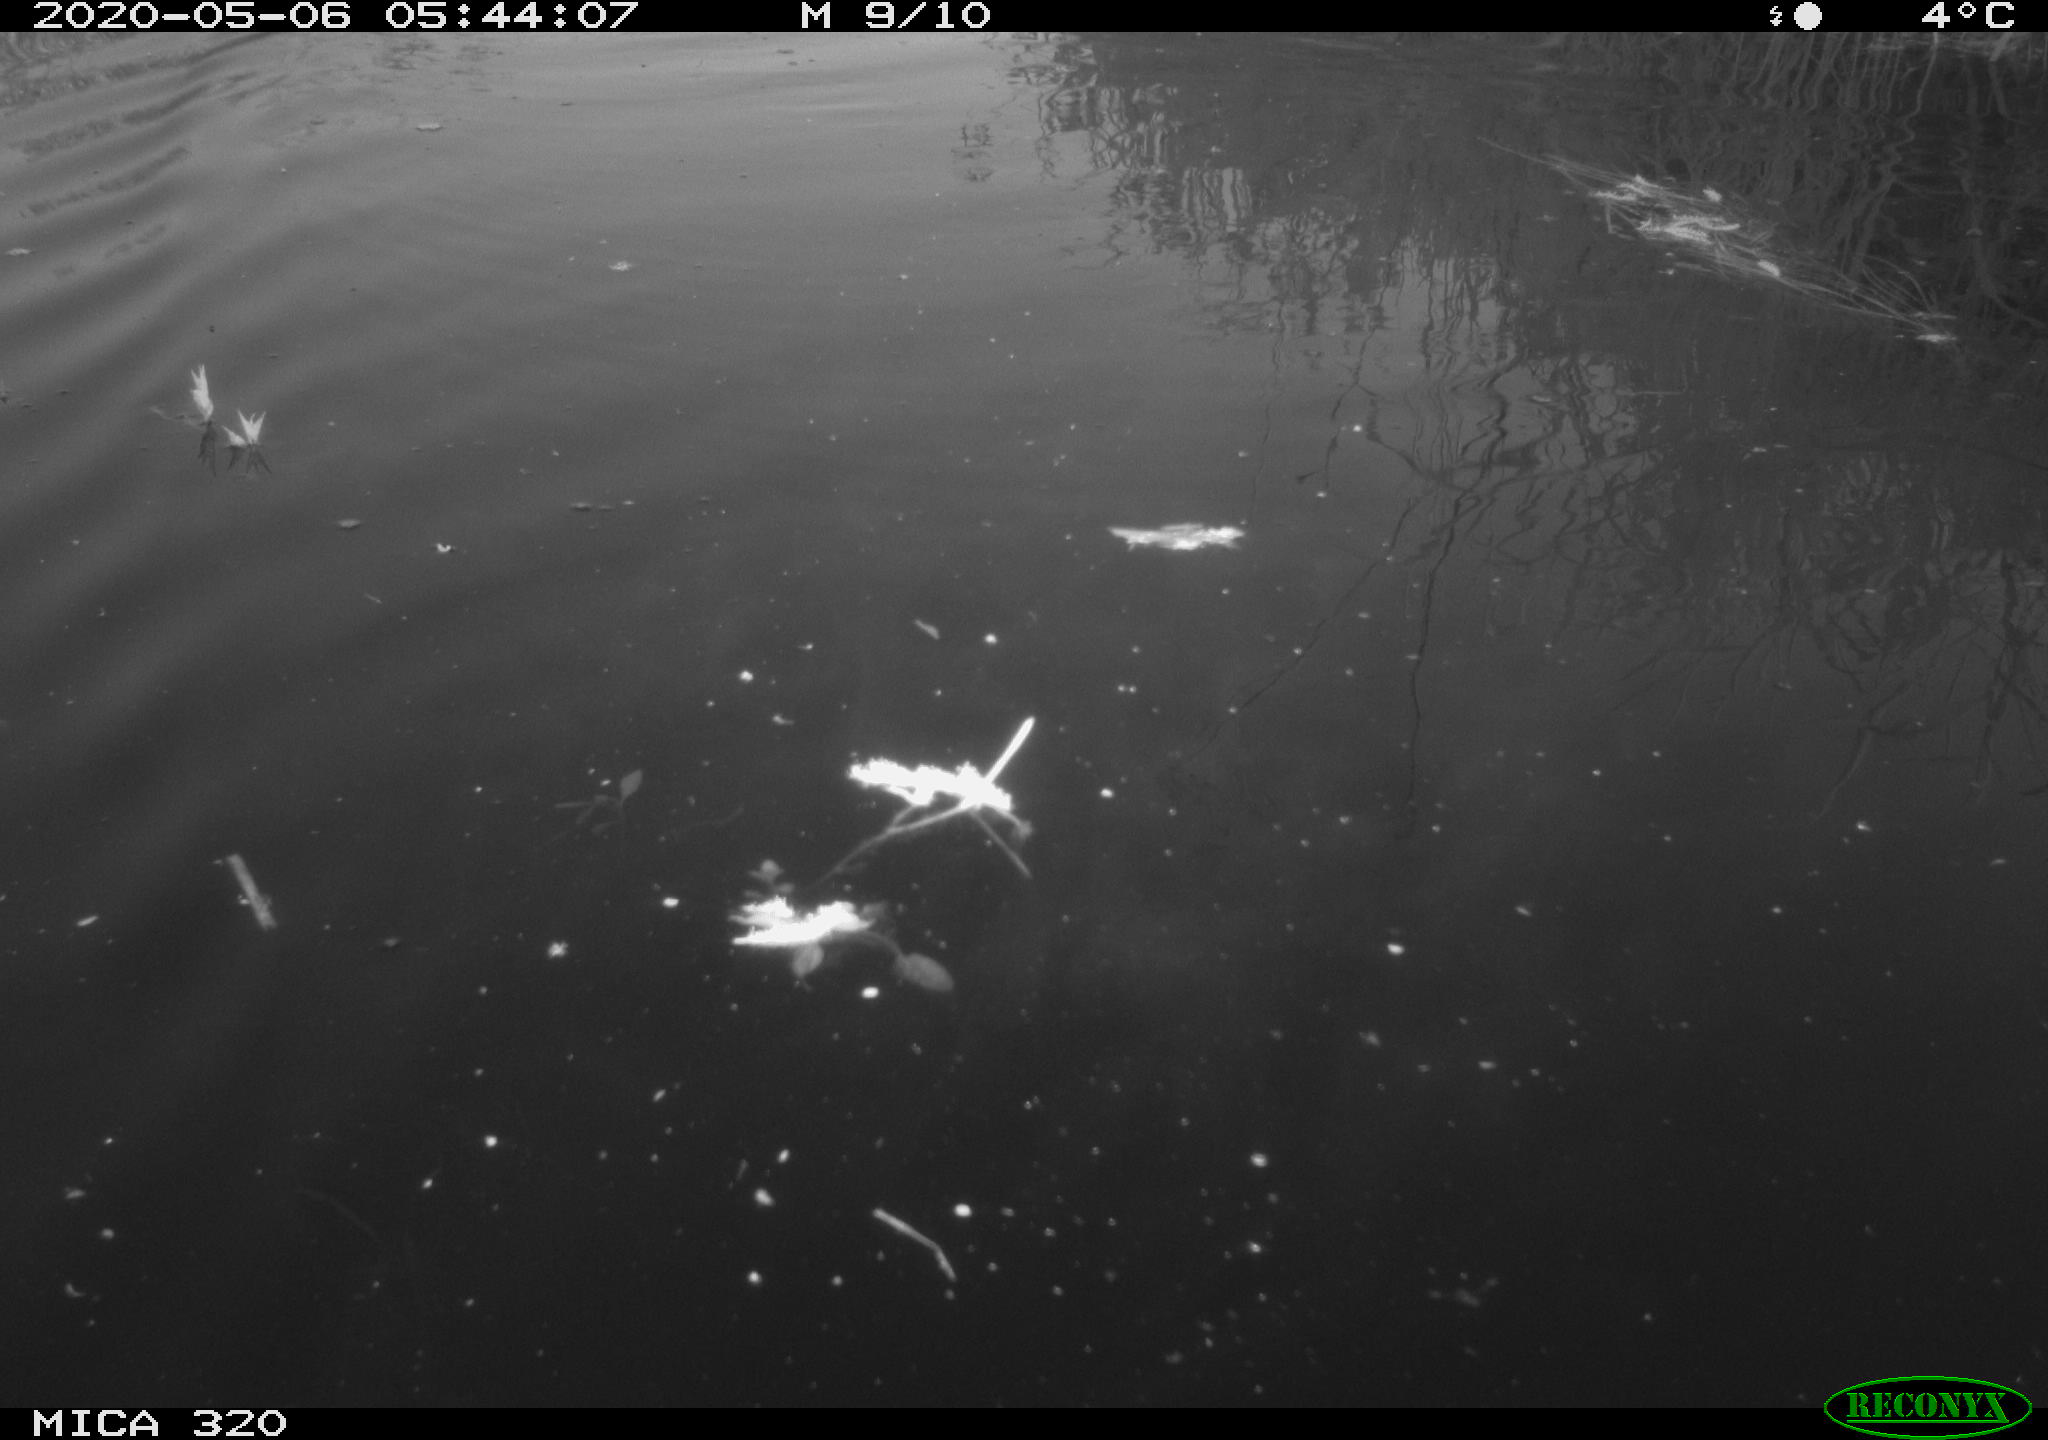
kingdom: Animalia
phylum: Chordata
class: Aves
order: Anseriformes
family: Anatidae
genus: Anas
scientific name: Anas platyrhynchos
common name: Mallard
